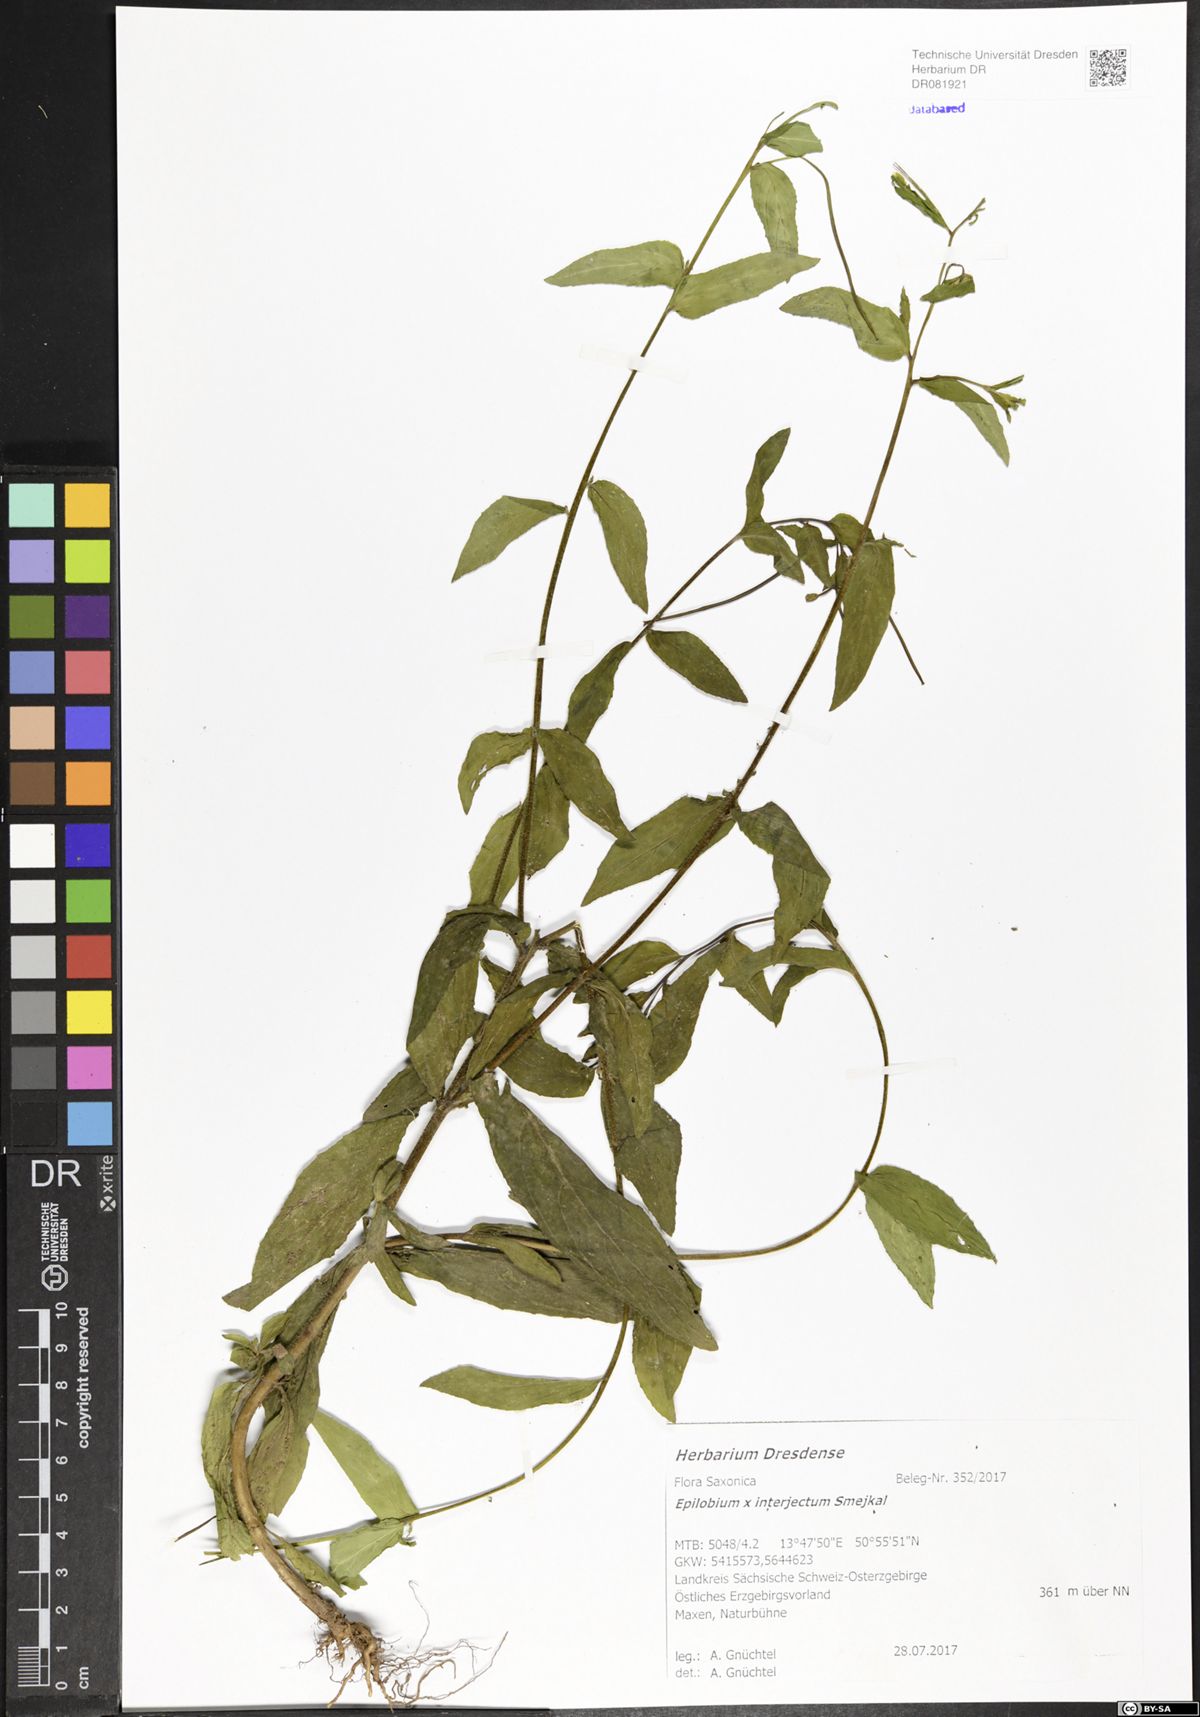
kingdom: Plantae
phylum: Tracheophyta
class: Magnoliopsida
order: Myrtales
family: Onagraceae
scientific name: Onagraceae
